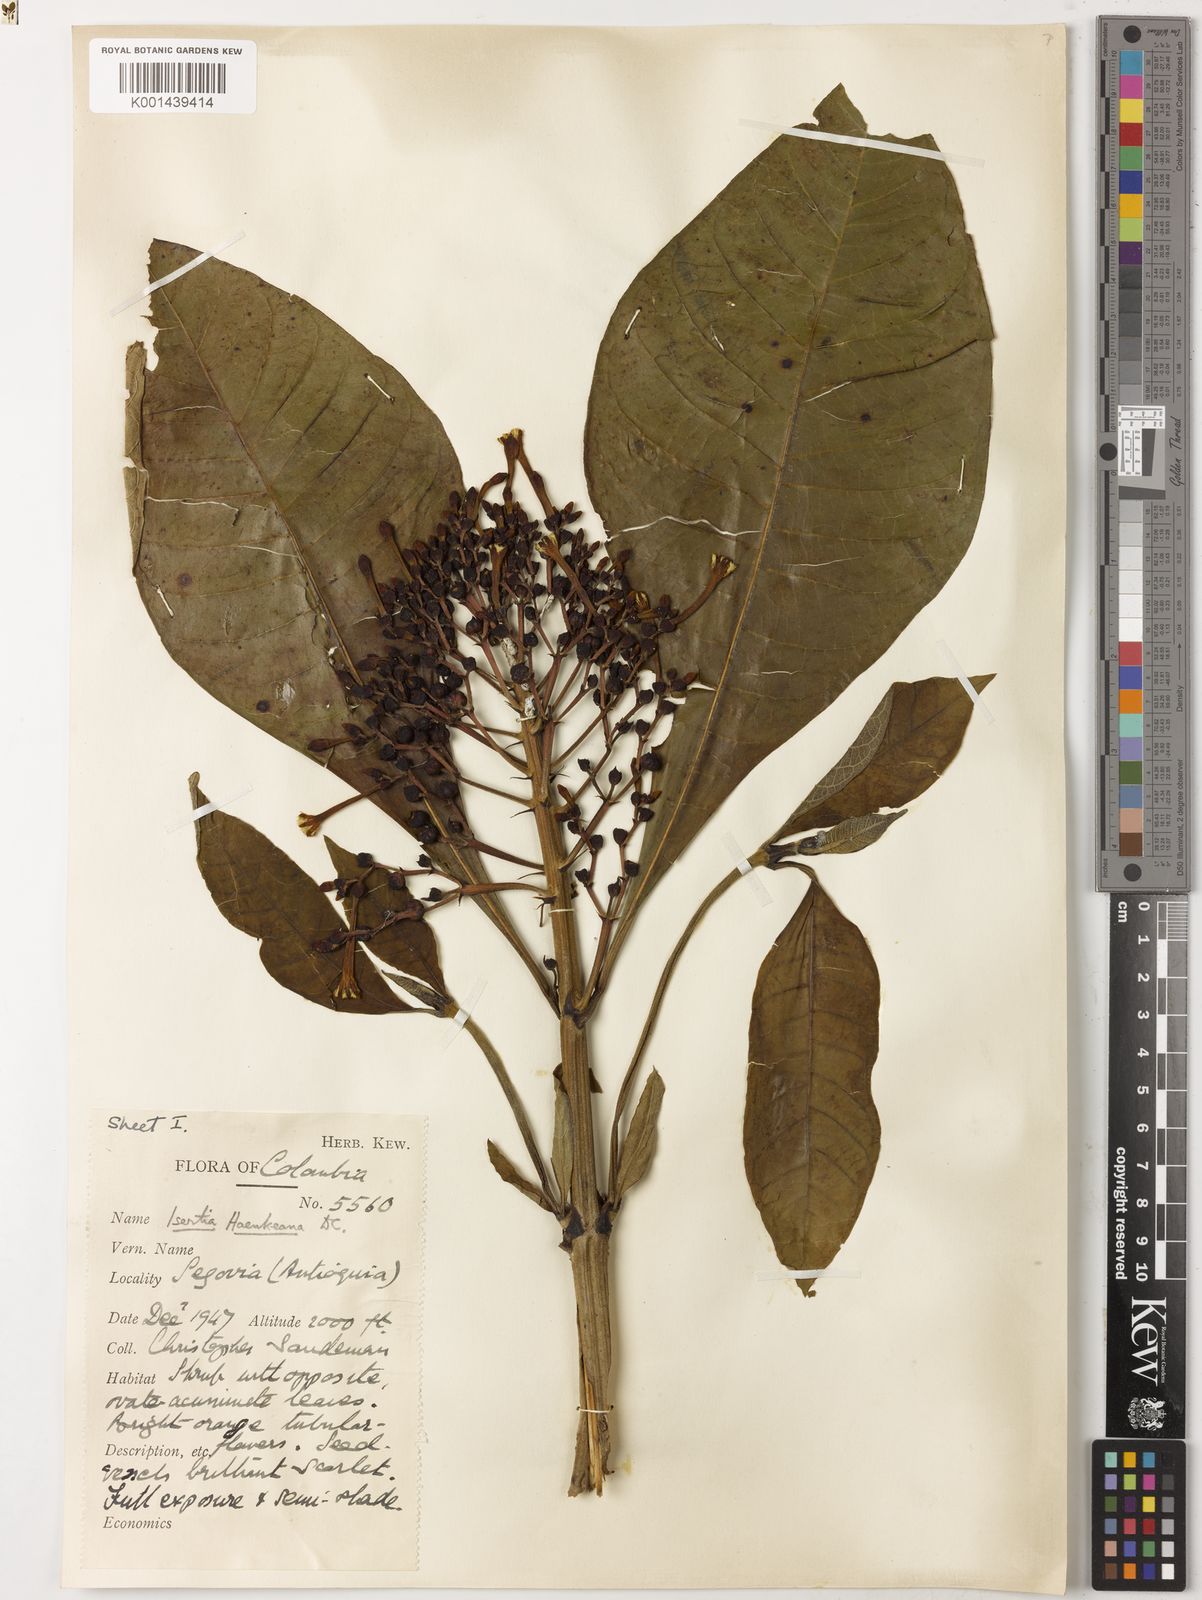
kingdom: Plantae
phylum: Tracheophyta
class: Magnoliopsida
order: Gentianales
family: Rubiaceae
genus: Isertia
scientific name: Isertia haenkeana
